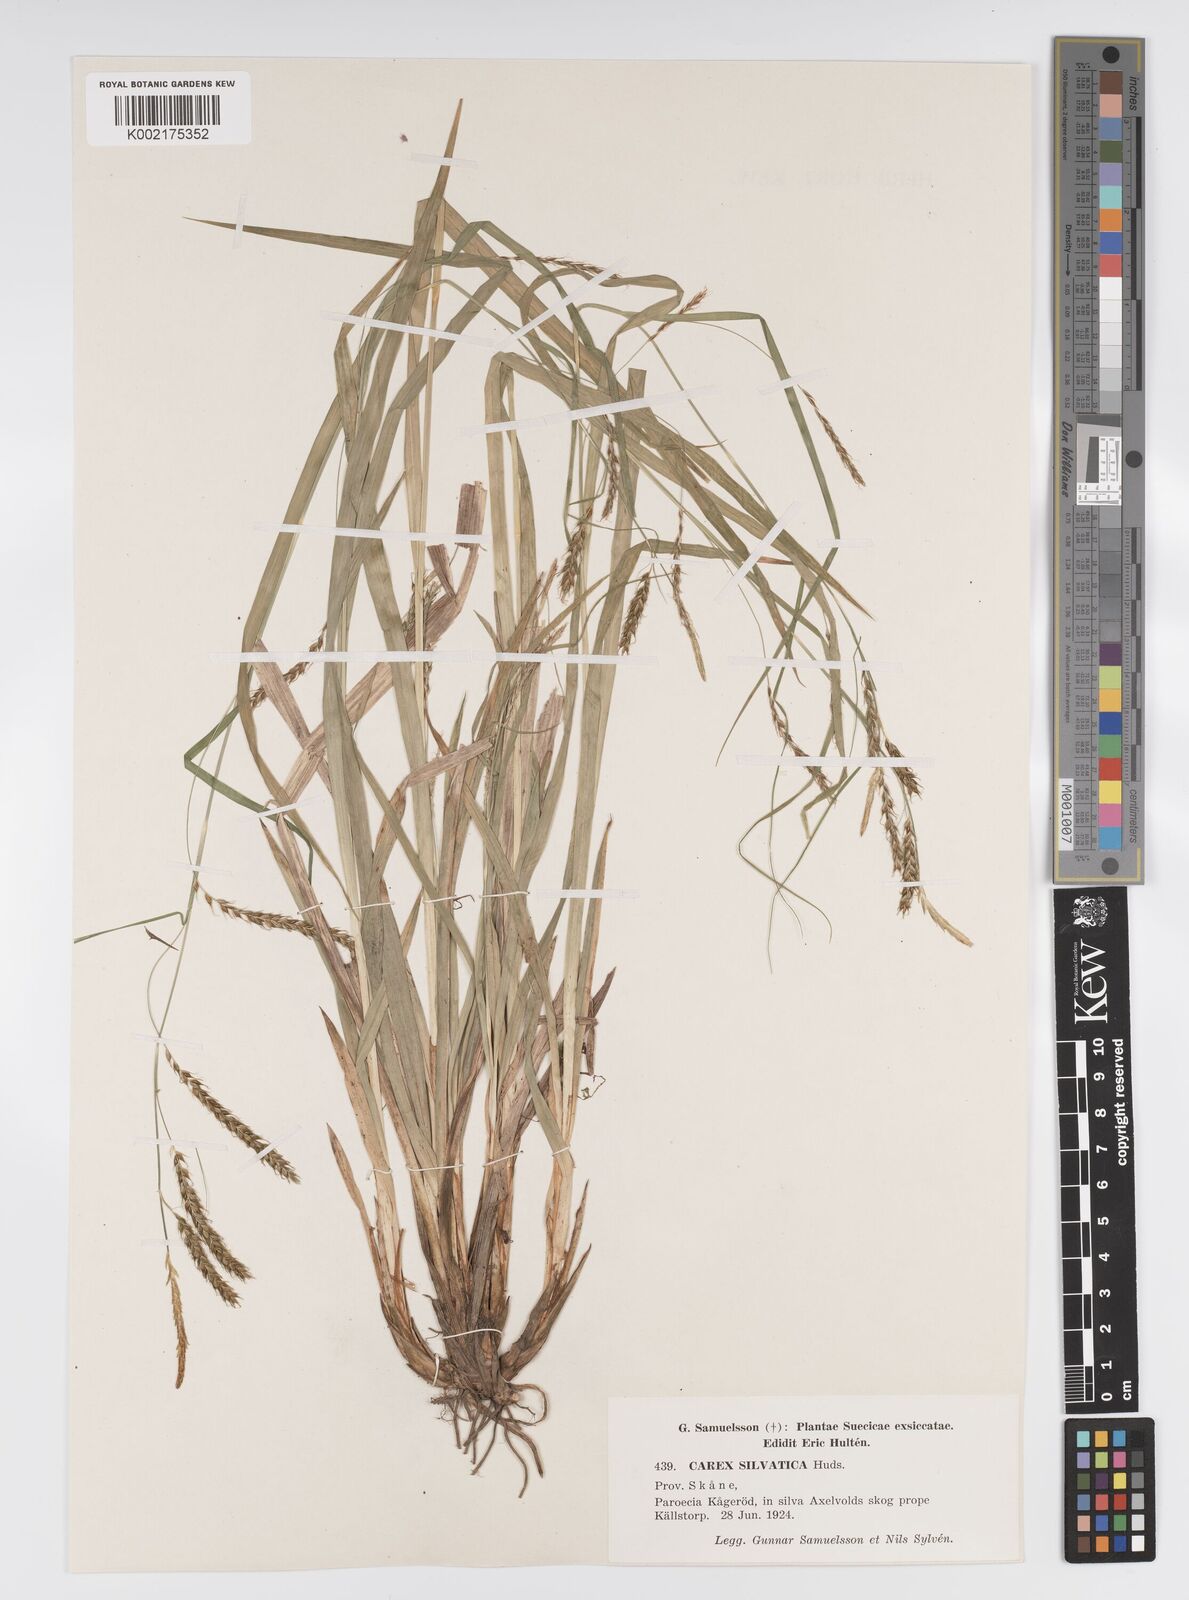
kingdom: Plantae
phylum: Tracheophyta
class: Liliopsida
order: Poales
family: Cyperaceae
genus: Carex
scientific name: Carex sylvatica
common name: Wood-sedge
